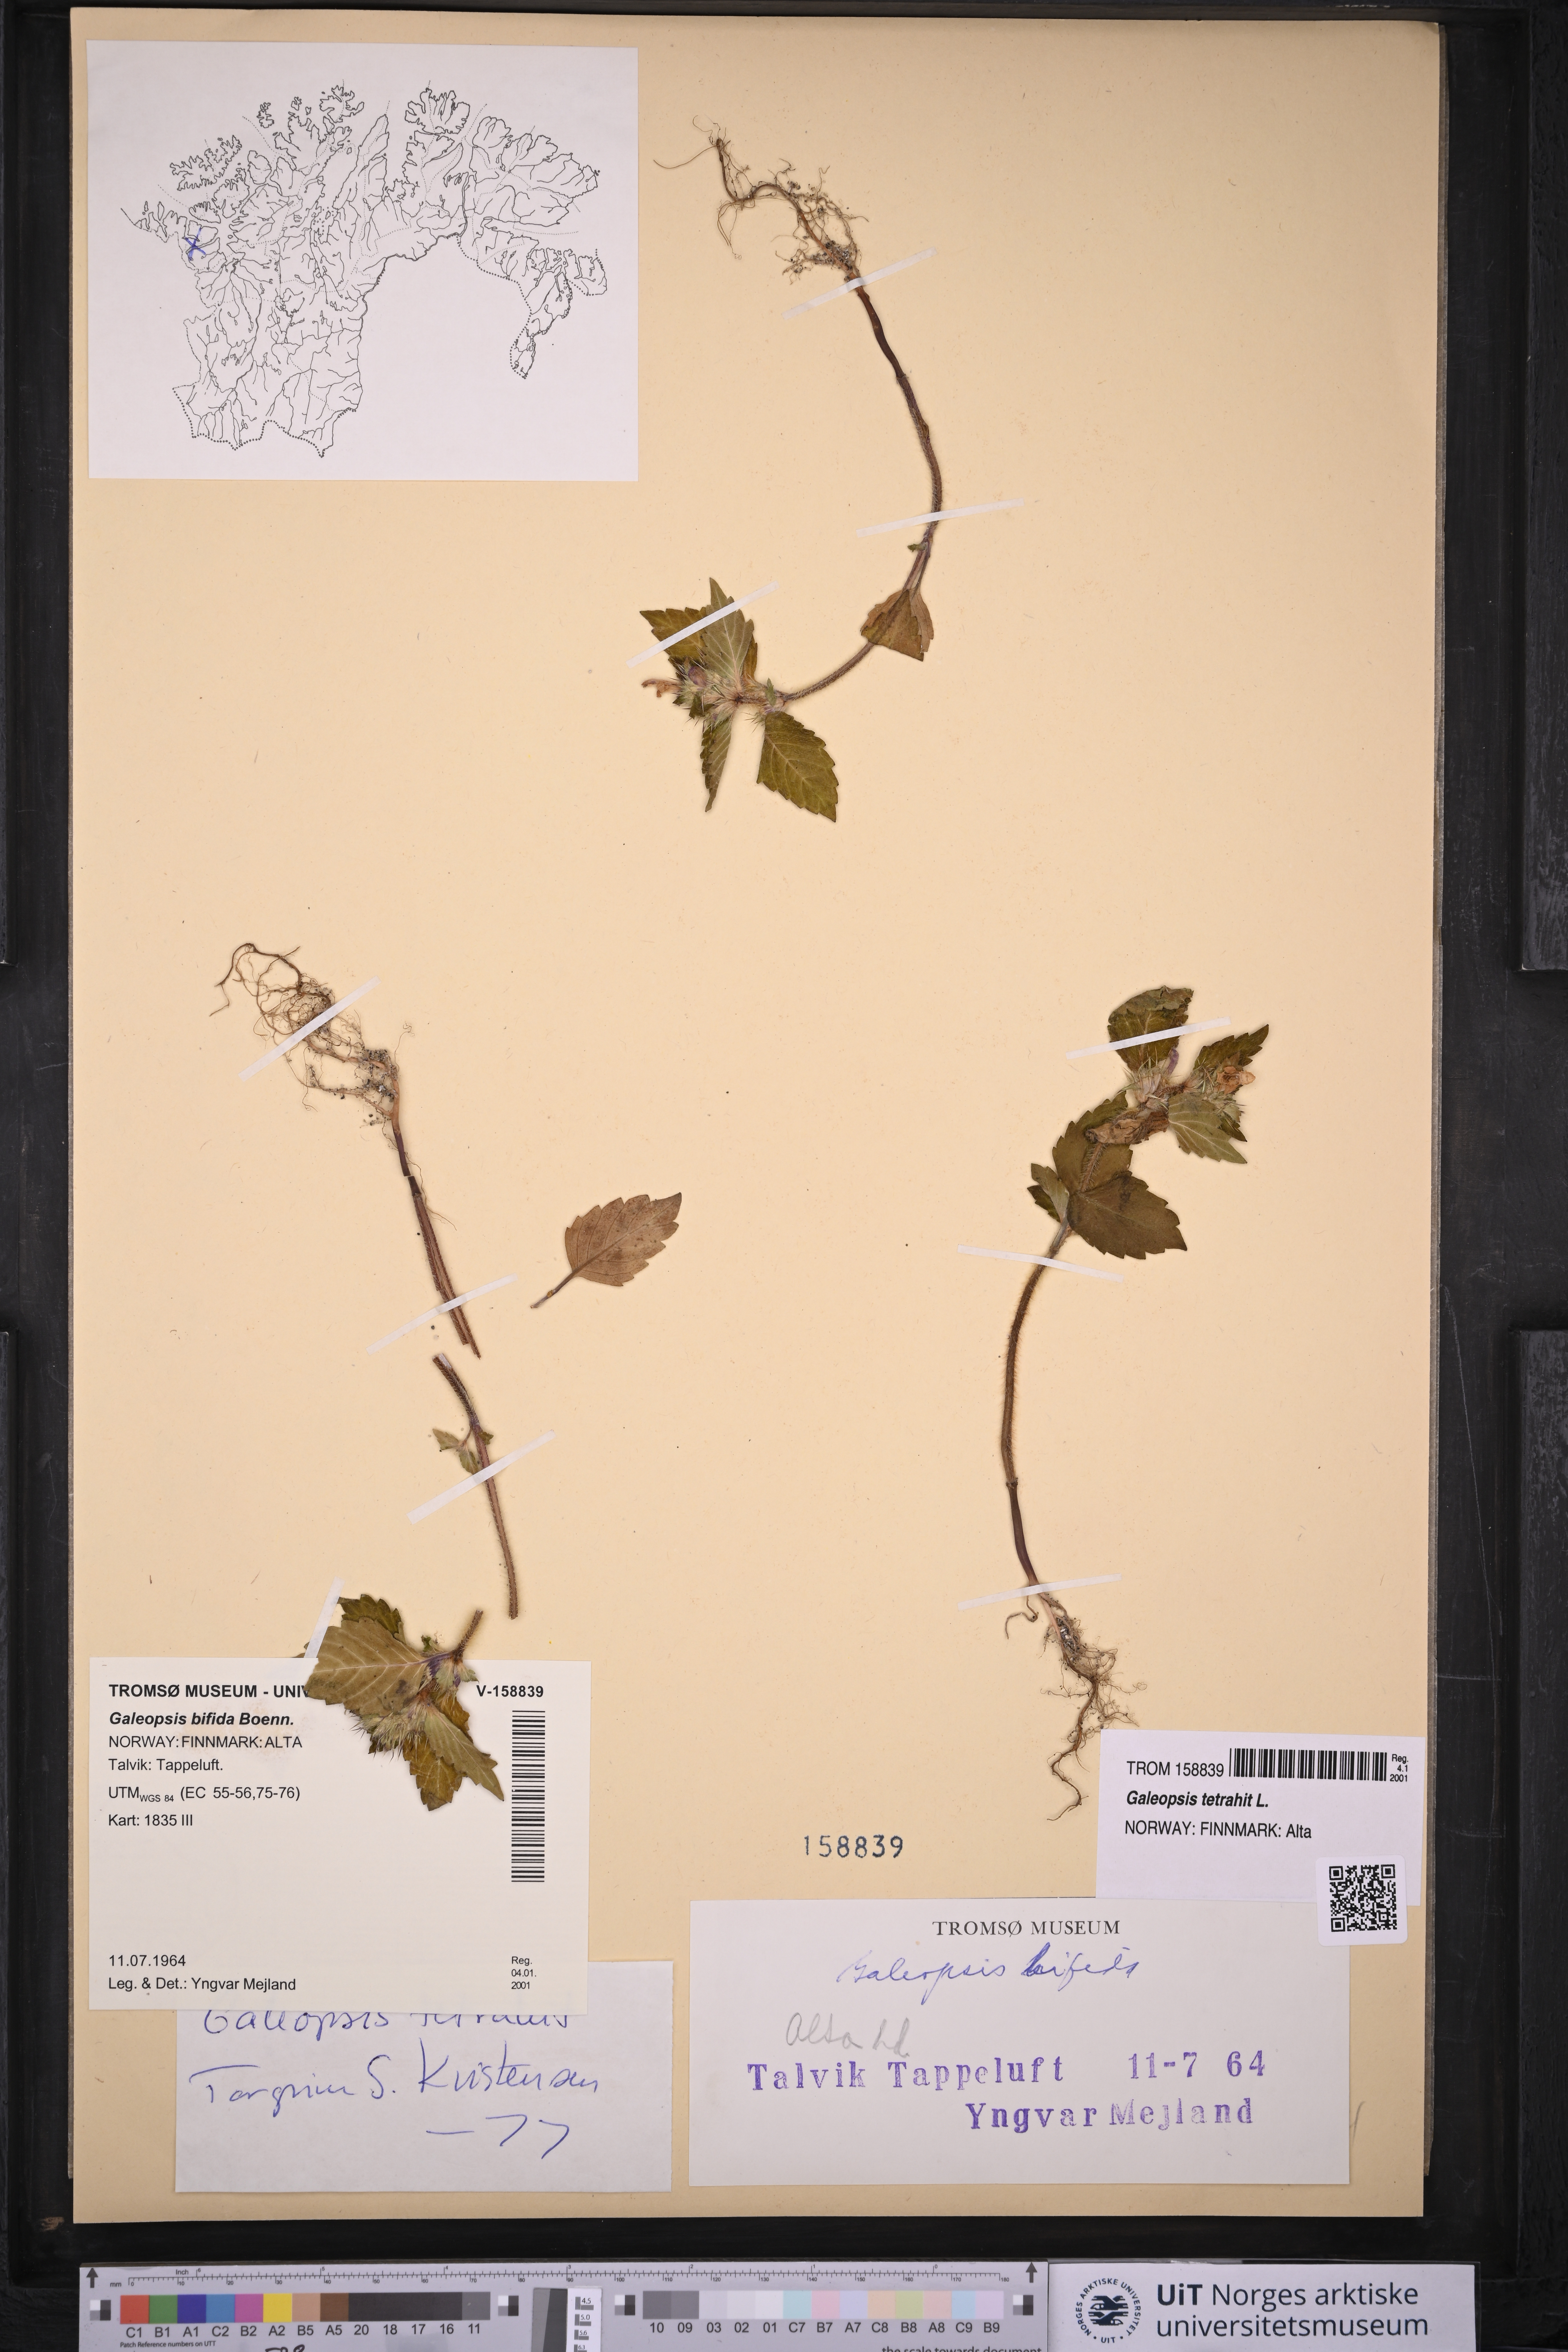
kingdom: Plantae
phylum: Tracheophyta
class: Magnoliopsida
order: Lamiales
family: Lamiaceae
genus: Galeopsis
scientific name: Galeopsis tetrahit
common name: Common hemp-nettle
